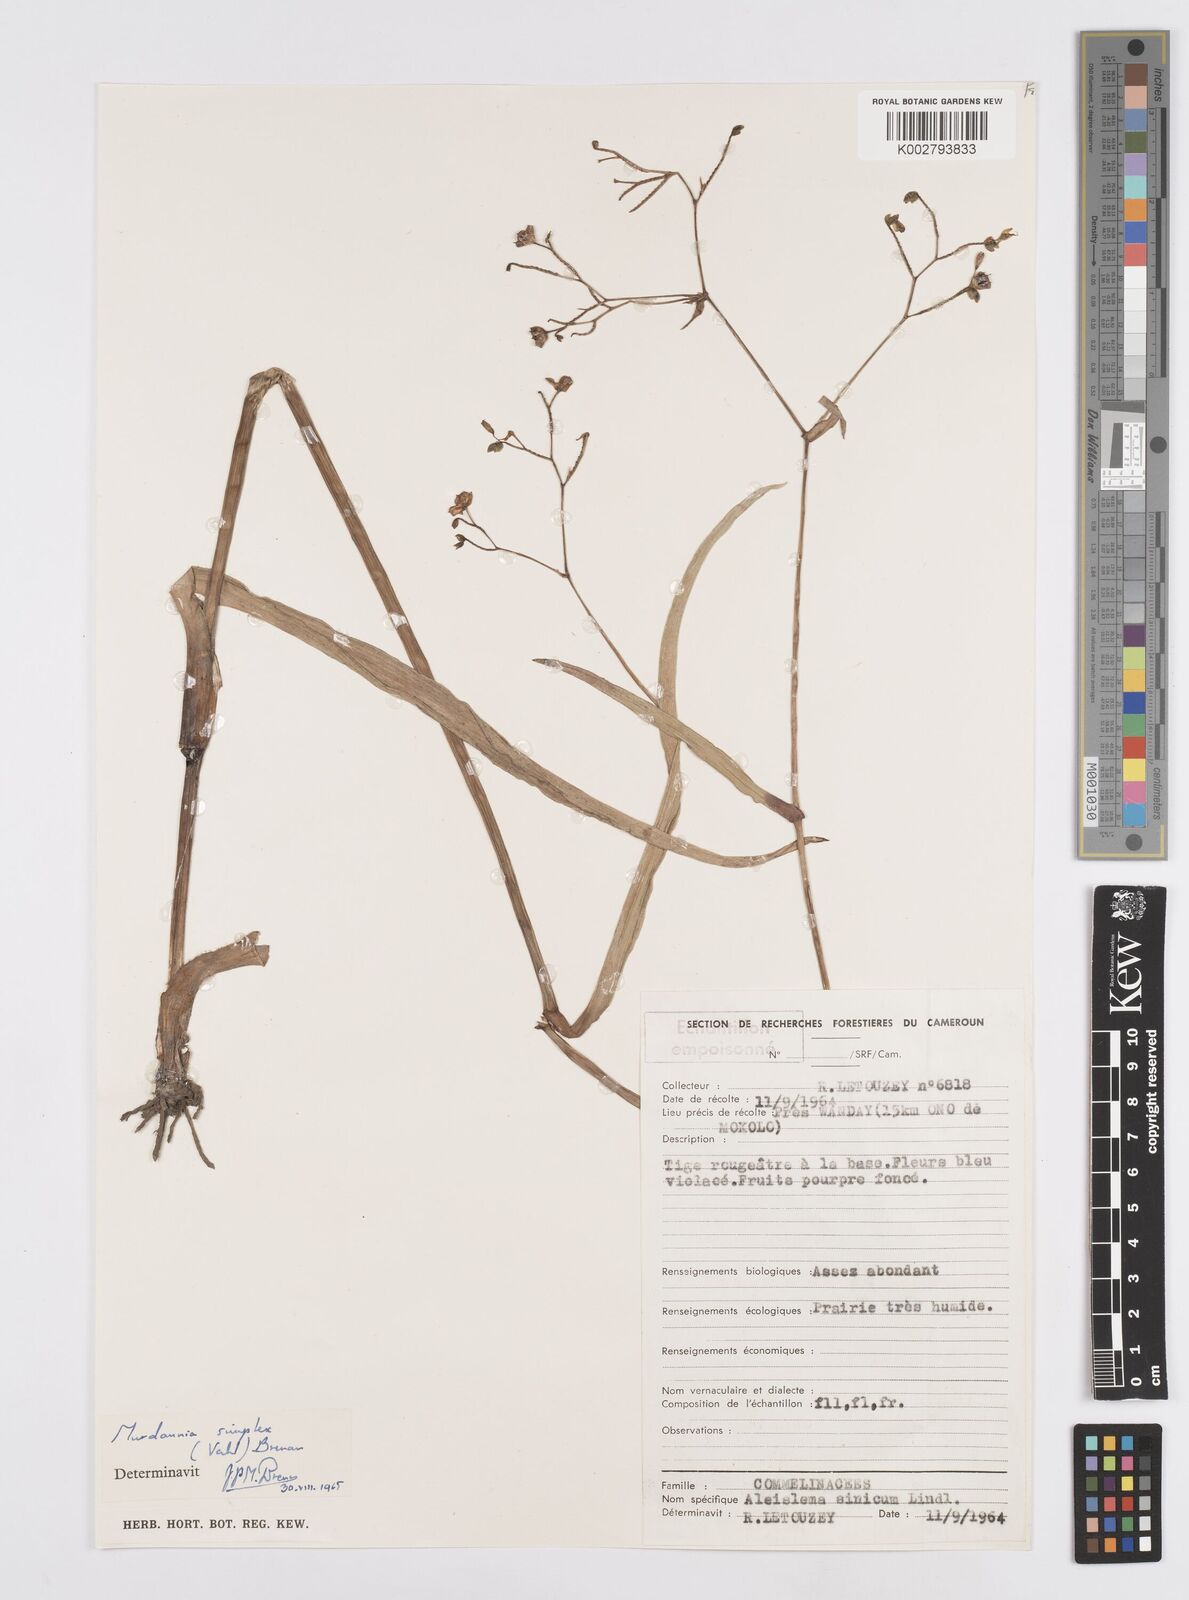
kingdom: Plantae
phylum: Tracheophyta
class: Liliopsida
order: Commelinales
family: Commelinaceae
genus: Murdannia
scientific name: Murdannia simplex
